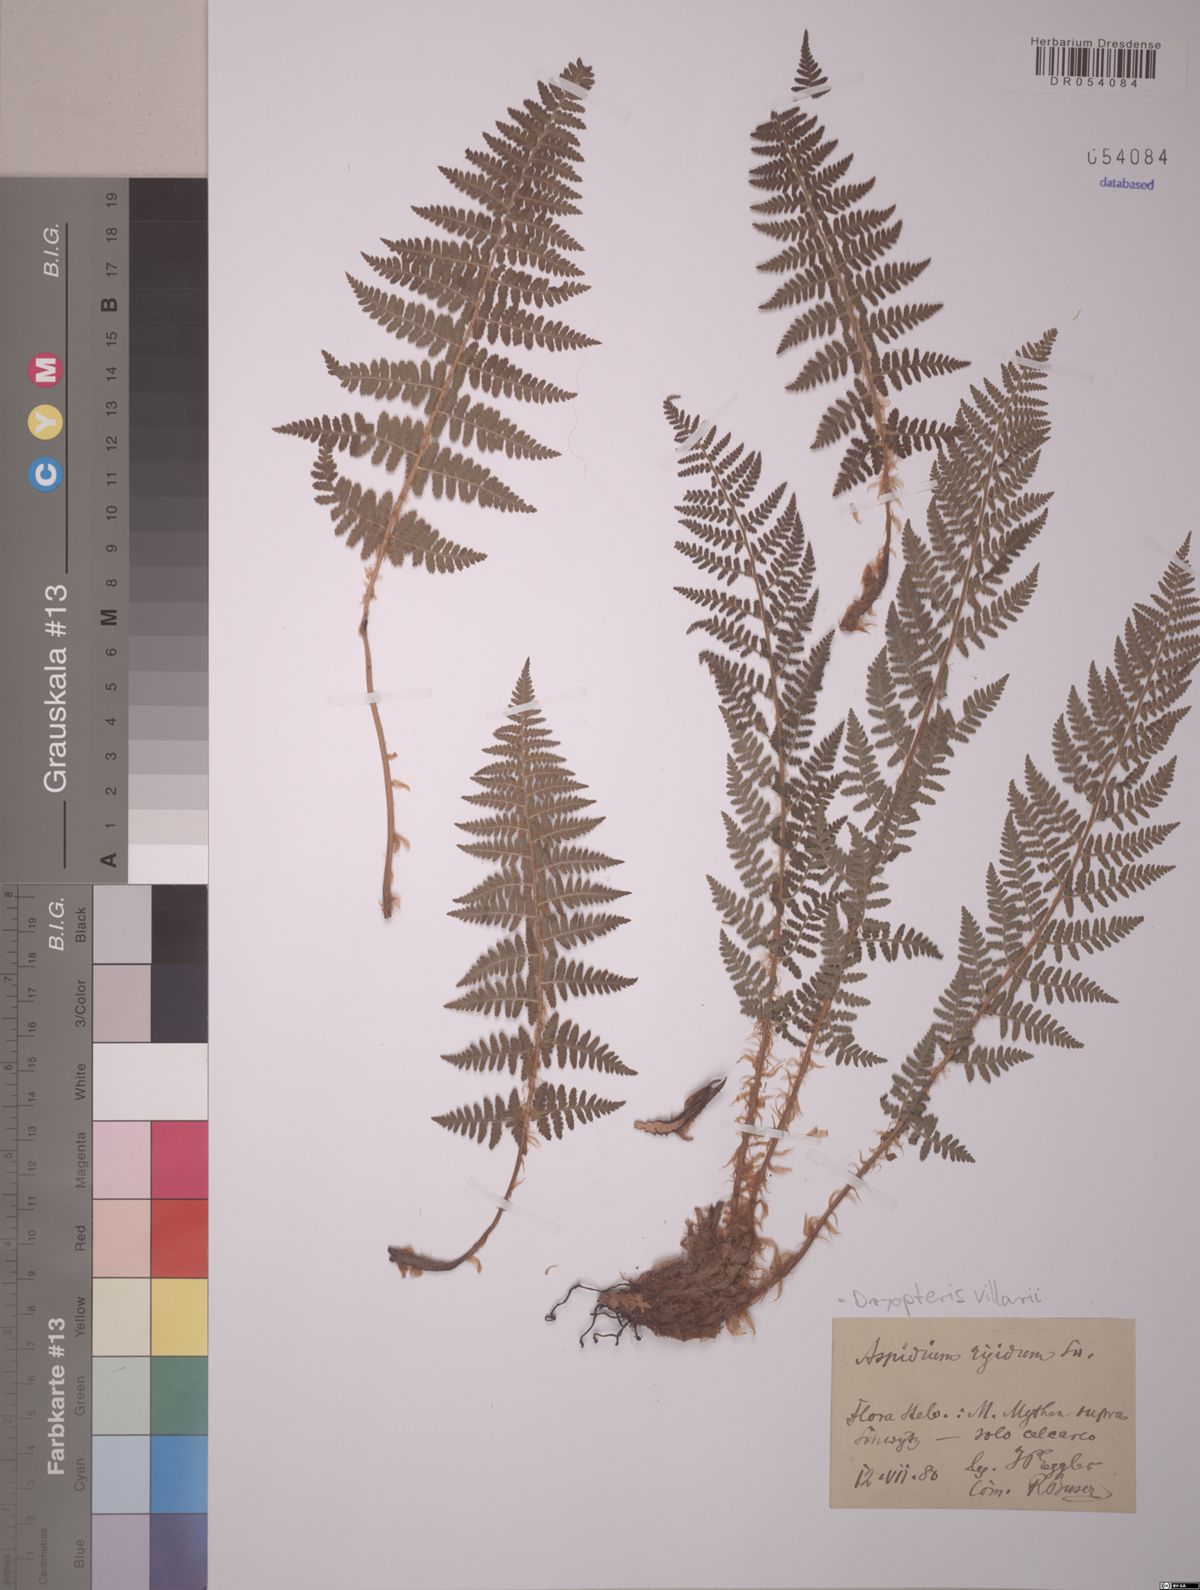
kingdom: Plantae
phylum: Tracheophyta
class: Polypodiopsida
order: Polypodiales
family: Dryopteridaceae
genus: Dryopteris
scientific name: Dryopteris villarii
